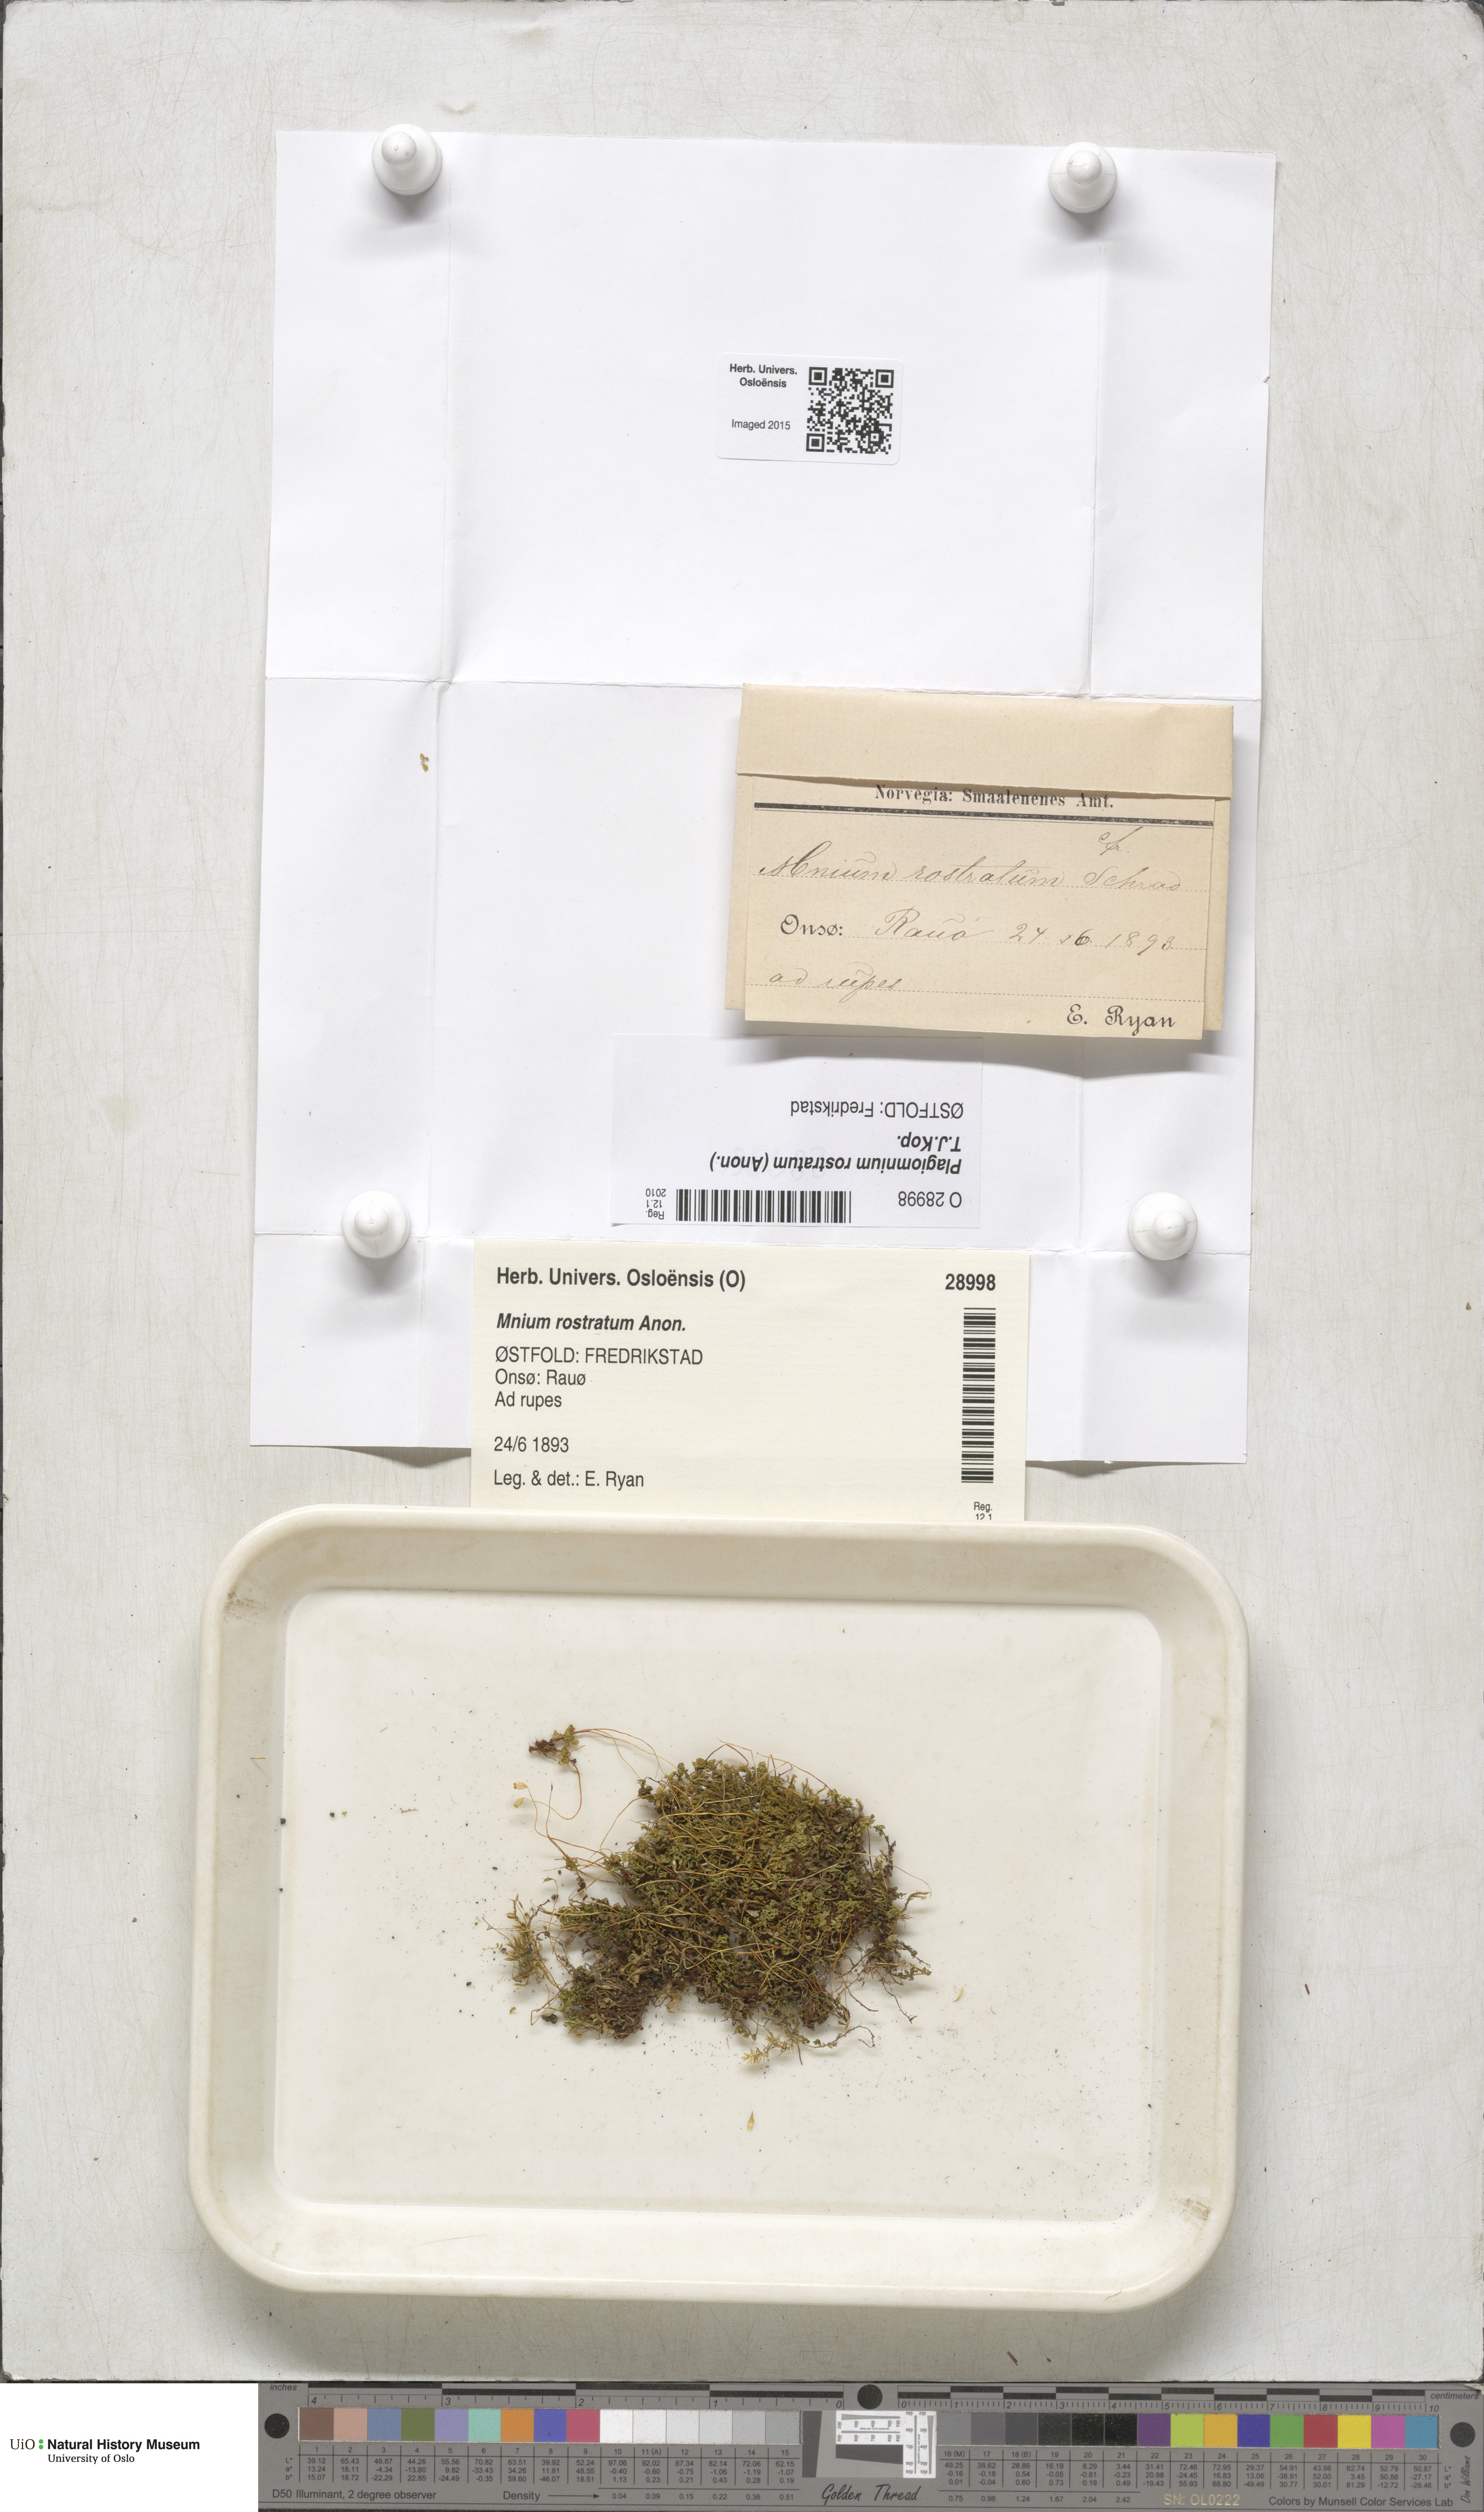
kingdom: Plantae
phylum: Bryophyta
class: Bryopsida
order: Bryales
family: Mniaceae
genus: Plagiomnium
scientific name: Plagiomnium rostratum
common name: Long-beaked leafy moss
